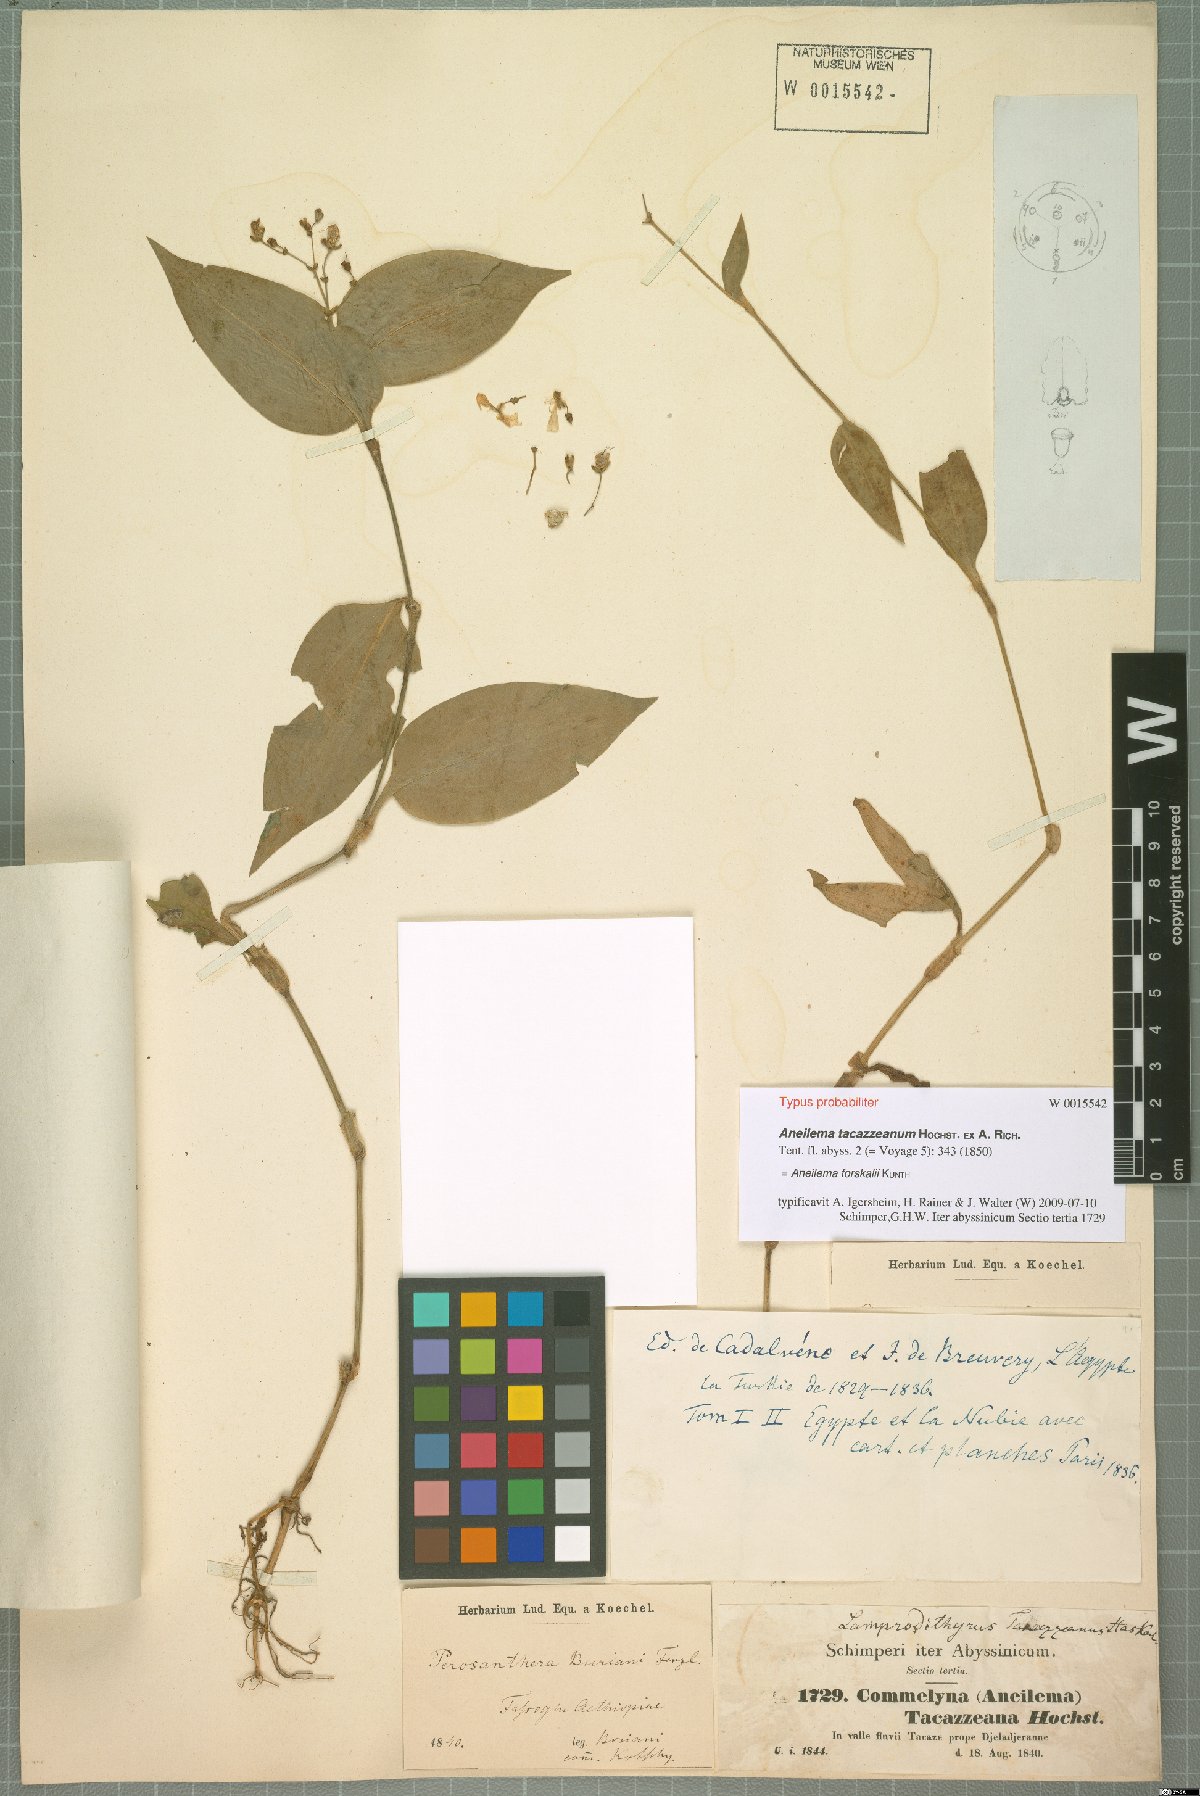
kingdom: Plantae
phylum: Tracheophyta
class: Liliopsida
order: Commelinales
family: Commelinaceae
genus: Aneilema
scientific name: Aneilema forskalii
